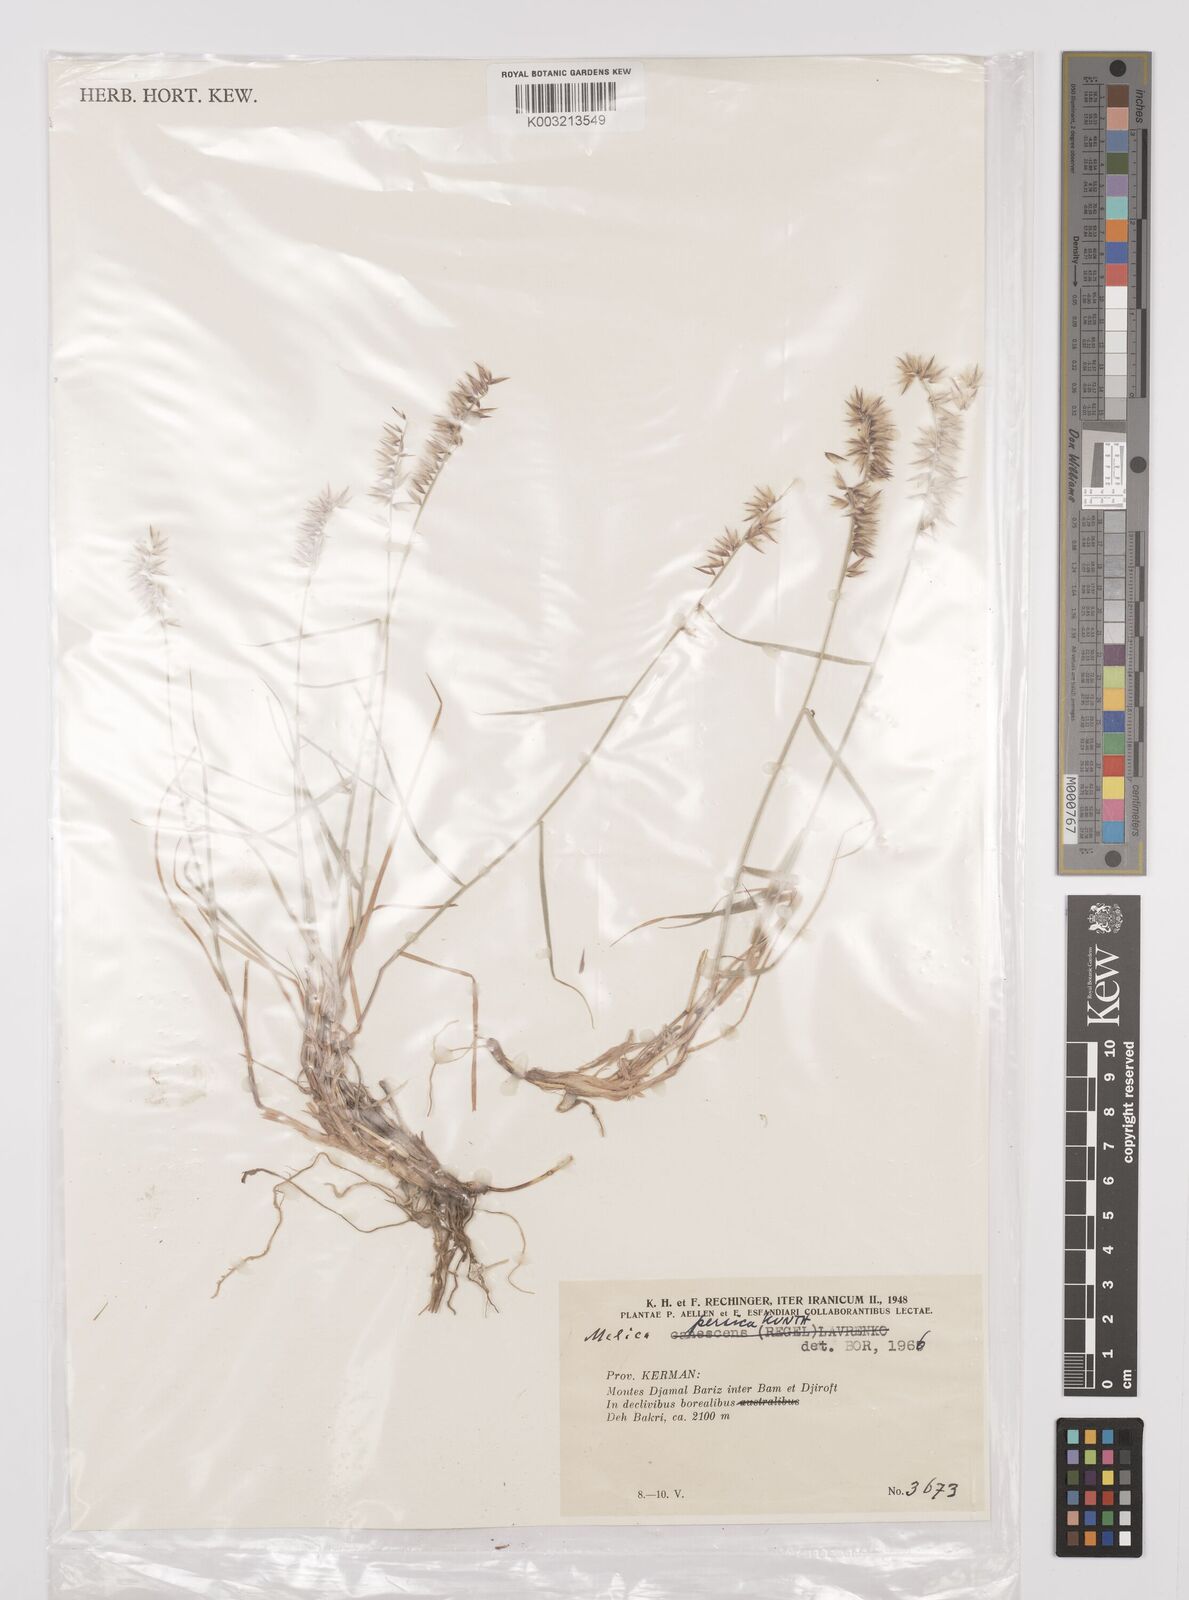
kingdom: Plantae
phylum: Tracheophyta
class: Liliopsida
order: Poales
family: Poaceae
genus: Melica
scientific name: Melica persica
